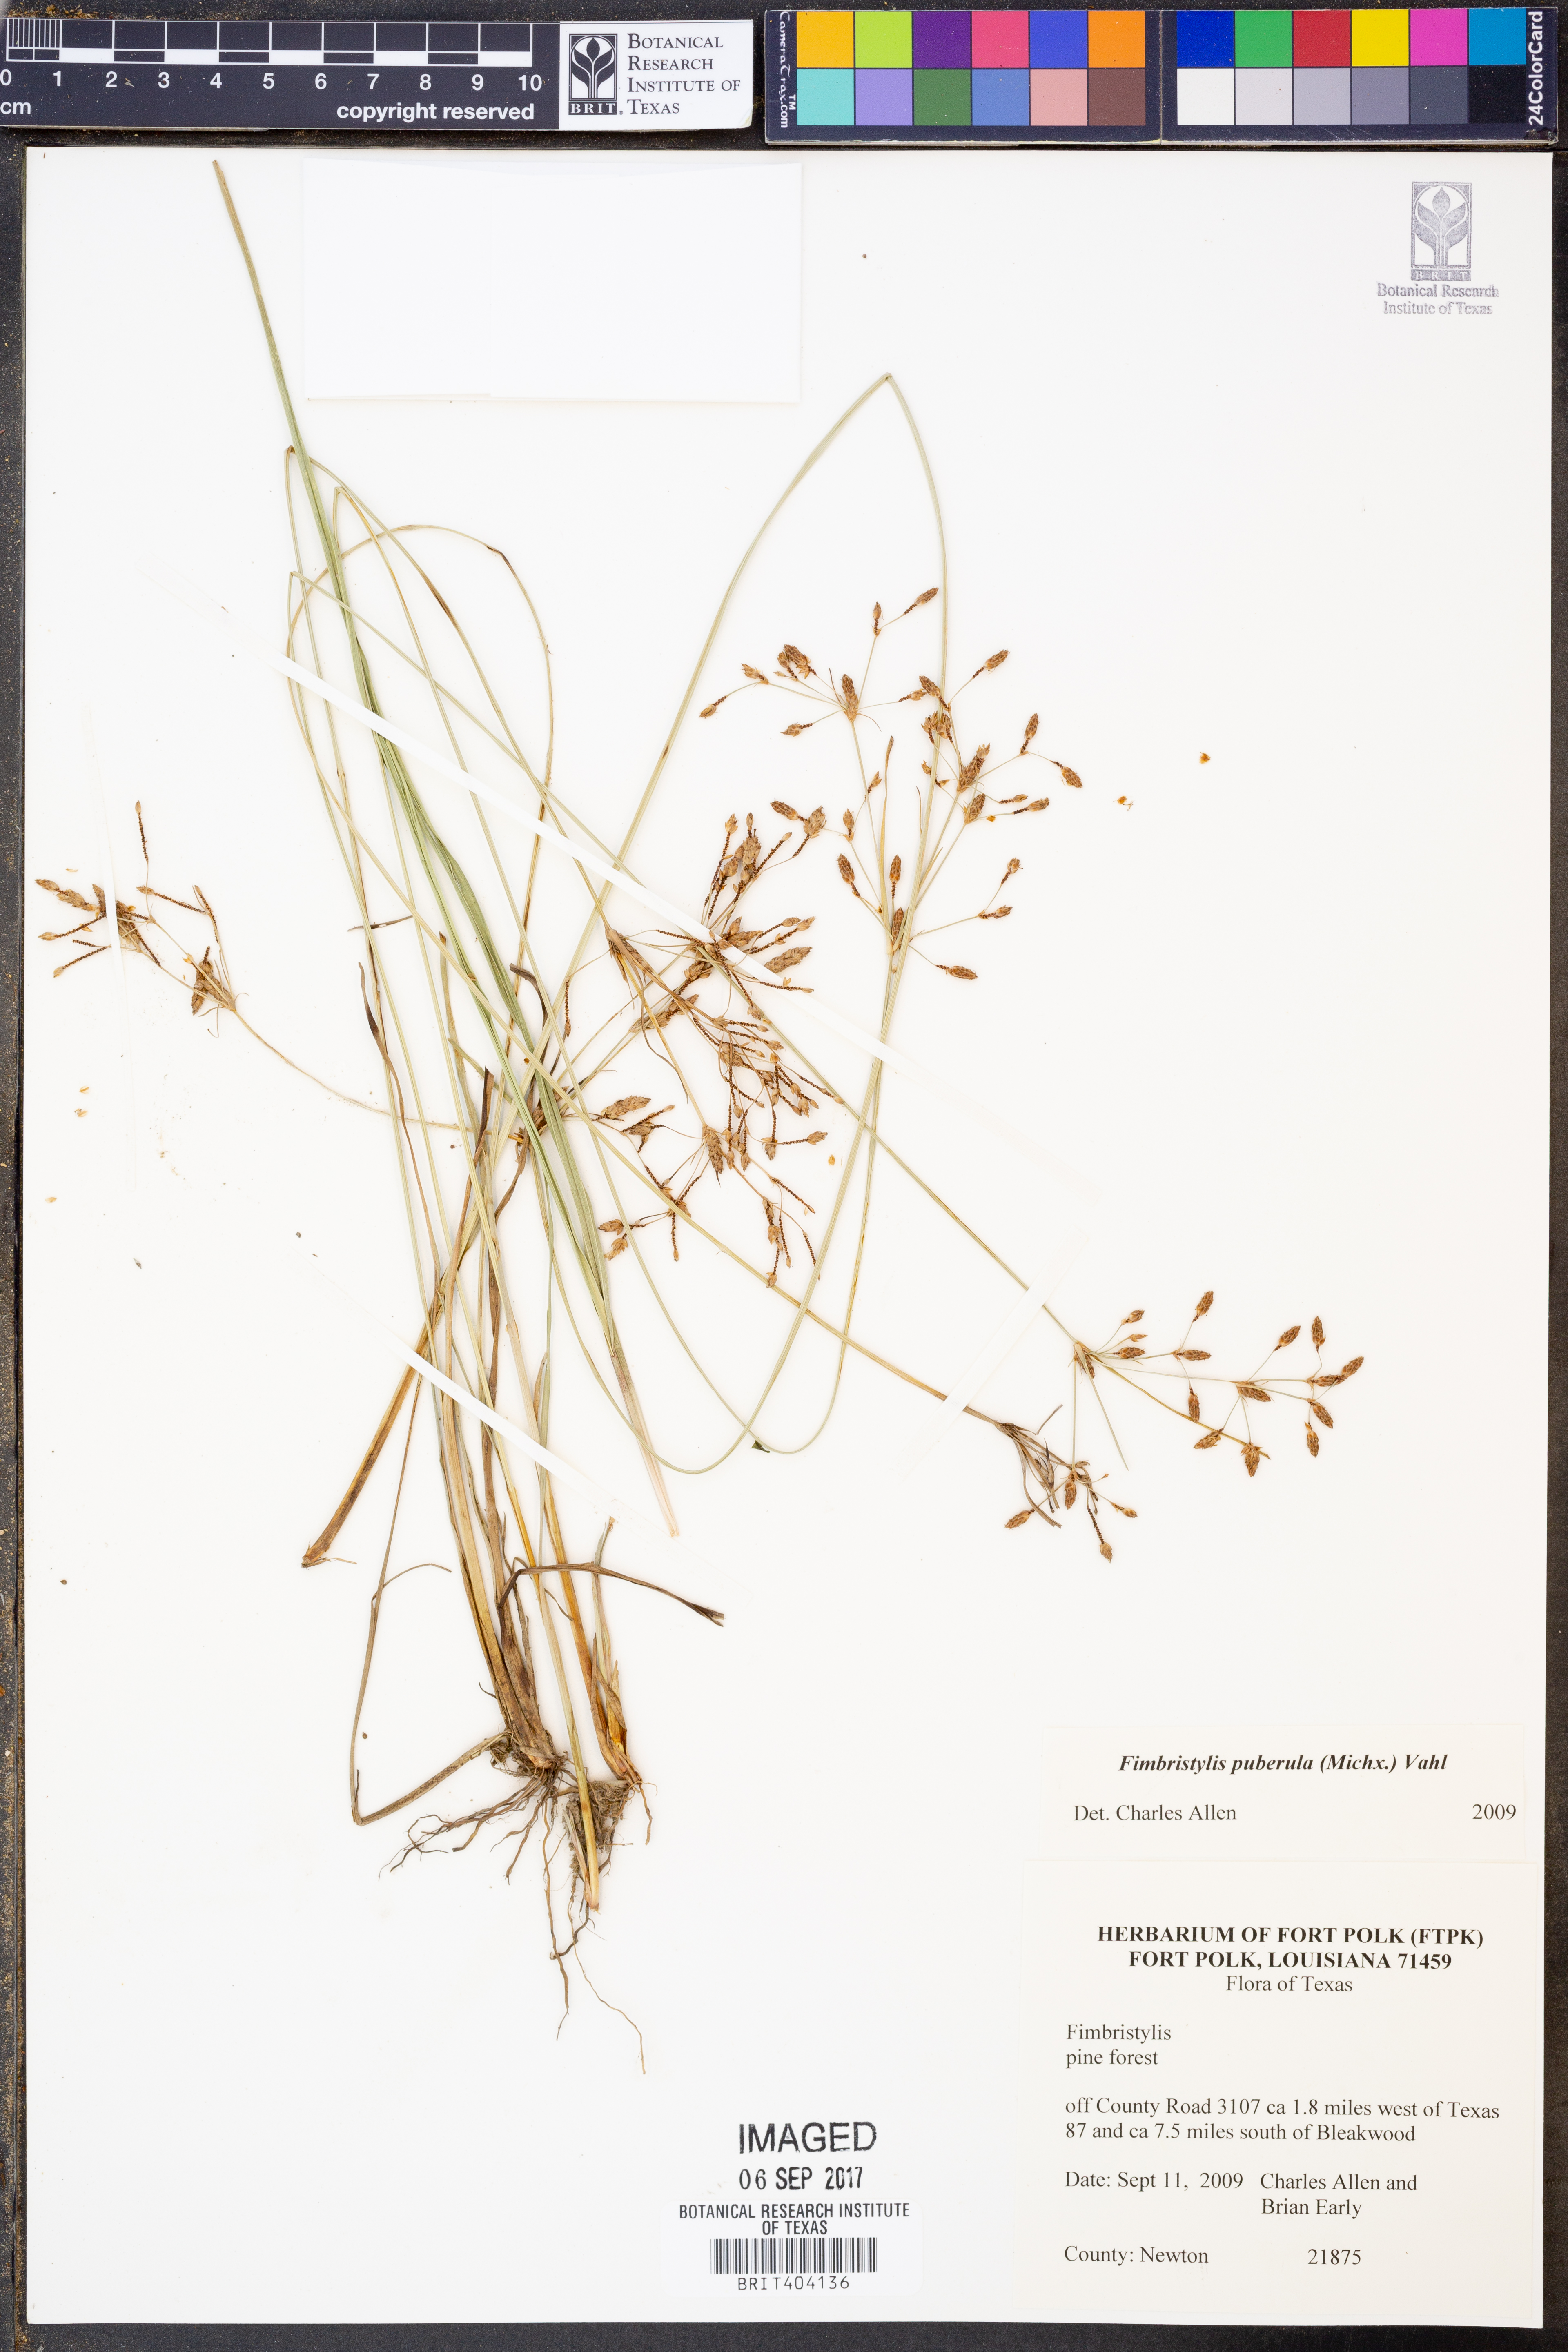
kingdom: Plantae
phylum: Tracheophyta
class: Liliopsida
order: Poales
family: Cyperaceae
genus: Fimbristylis
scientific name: Fimbristylis puberula
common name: Hairy fimbristylis
